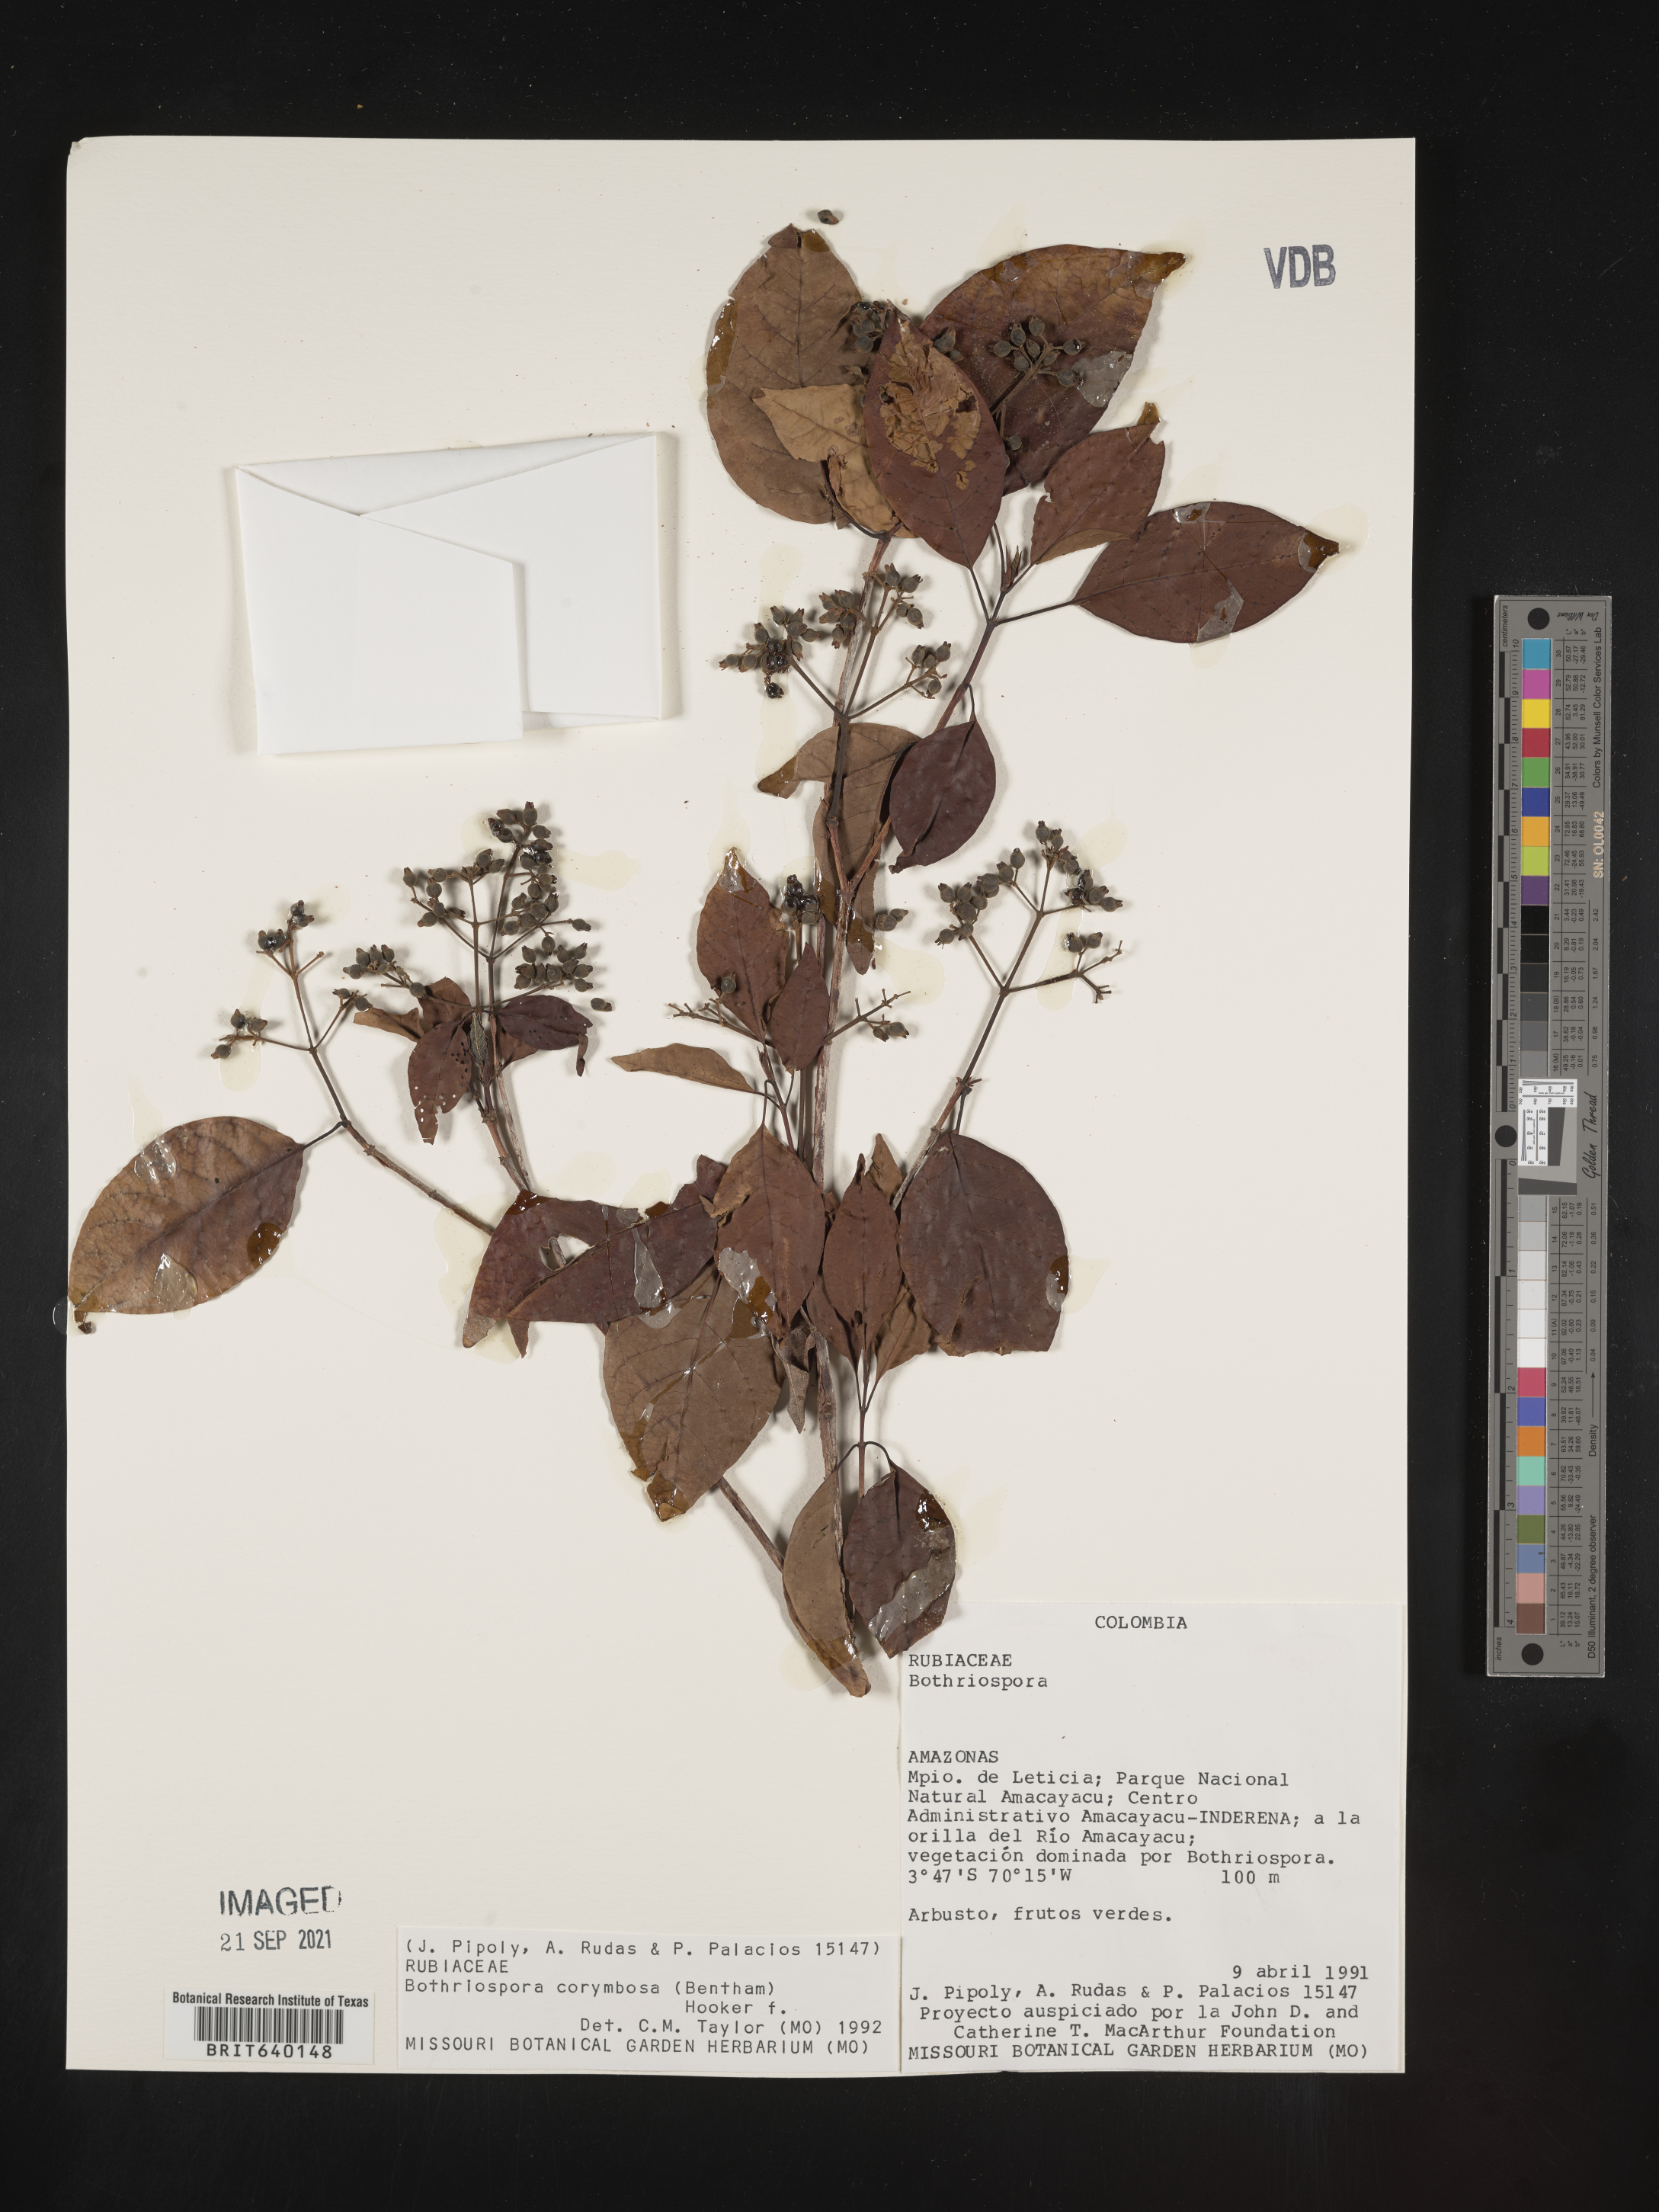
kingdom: Plantae
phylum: Tracheophyta
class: Magnoliopsida
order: Gentianales
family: Rubiaceae
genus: Bothriospora
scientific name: Bothriospora
